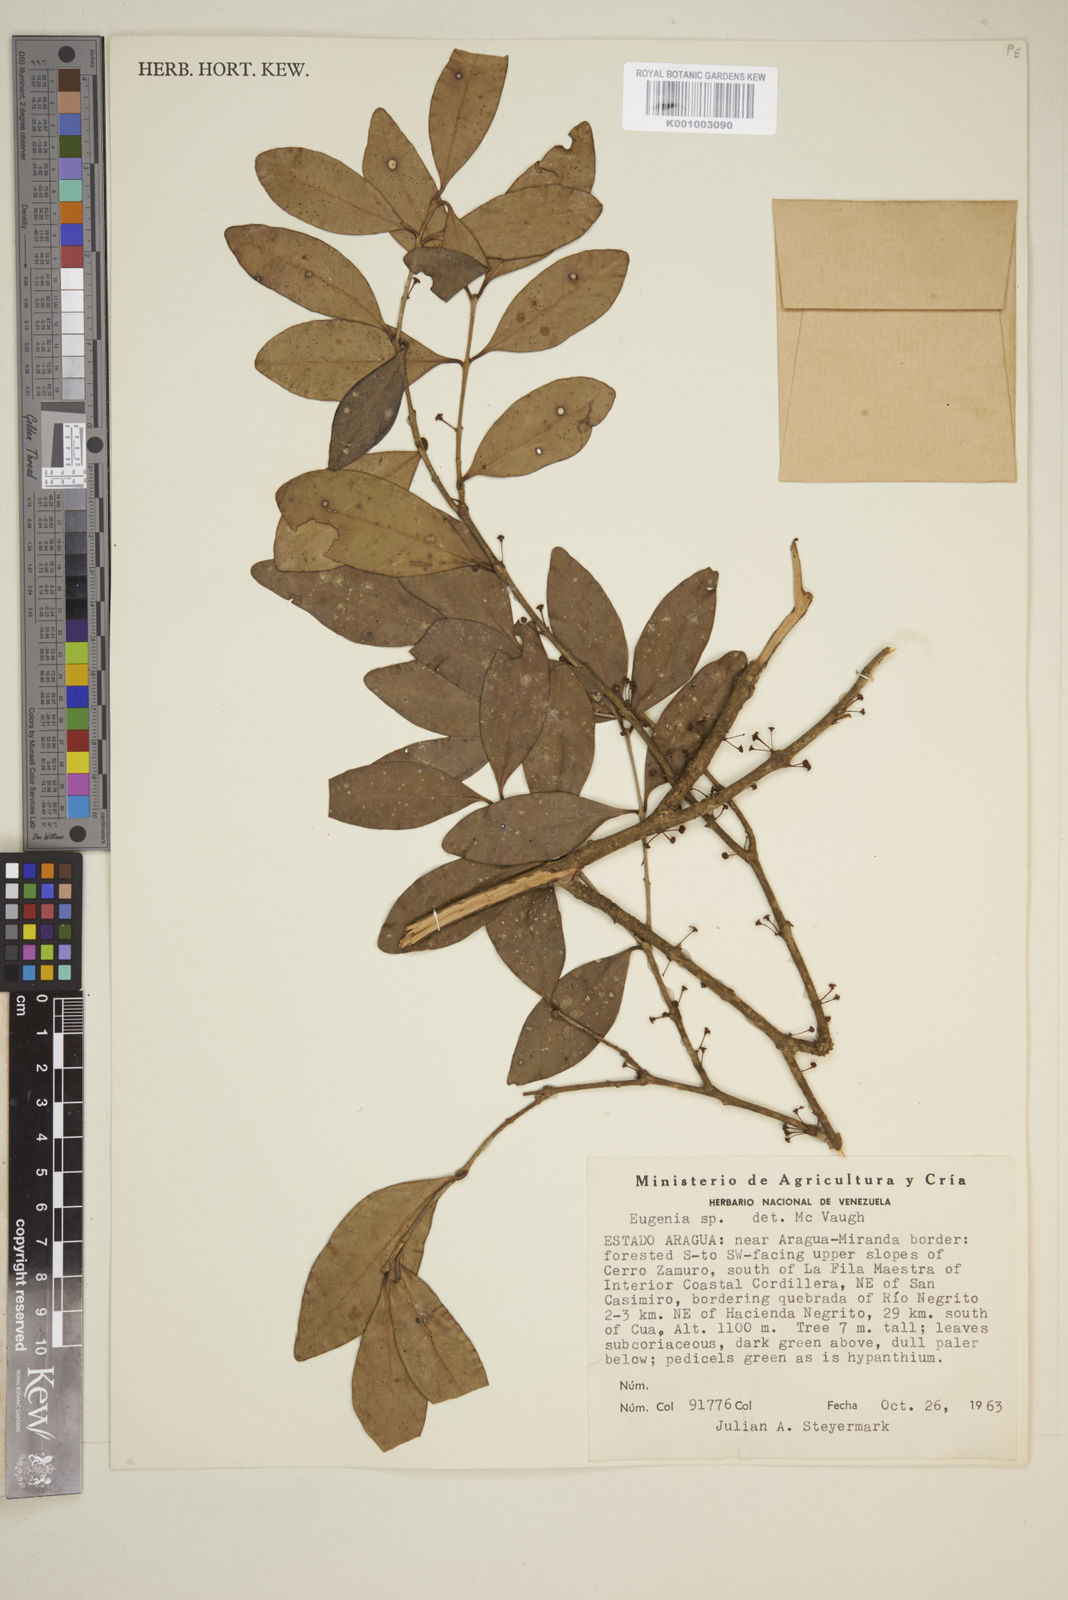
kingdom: Plantae
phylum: Tracheophyta
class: Magnoliopsida
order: Myrtales
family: Myrtaceae
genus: Eugenia
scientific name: Eugenia
